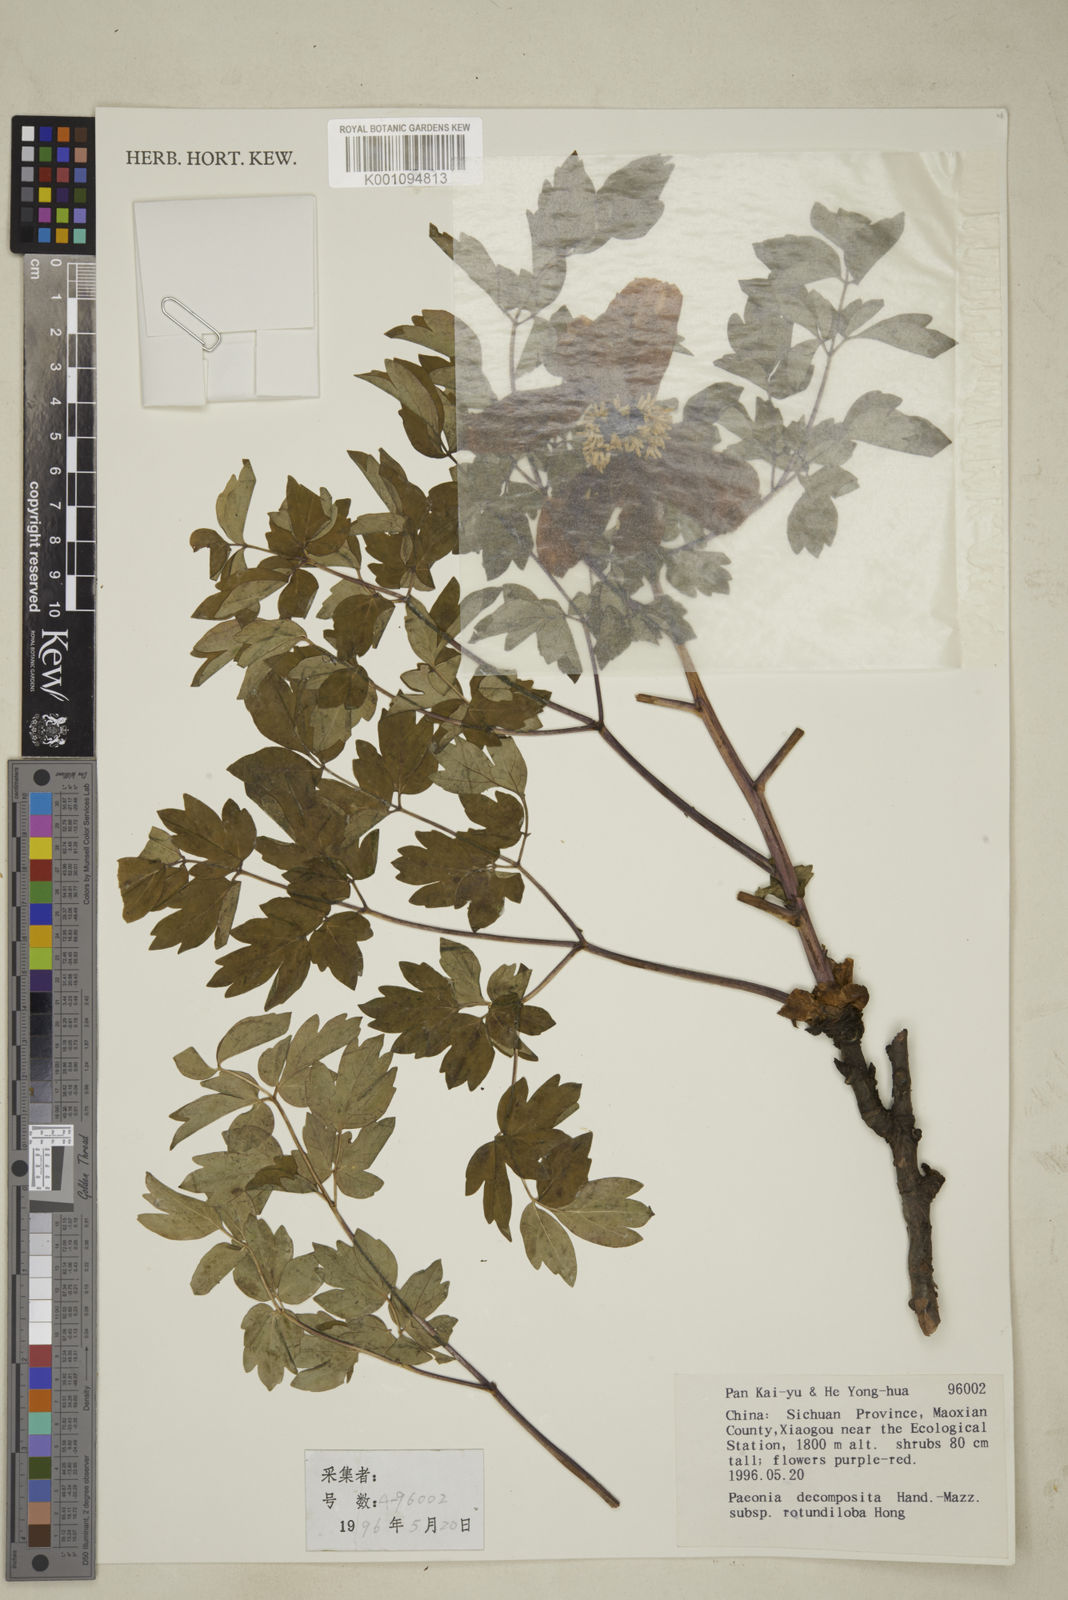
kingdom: Plantae
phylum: Tracheophyta
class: Magnoliopsida
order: Saxifragales
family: Paeoniaceae
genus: Paeonia
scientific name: Paeonia suffruticosa
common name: Moutan peony
